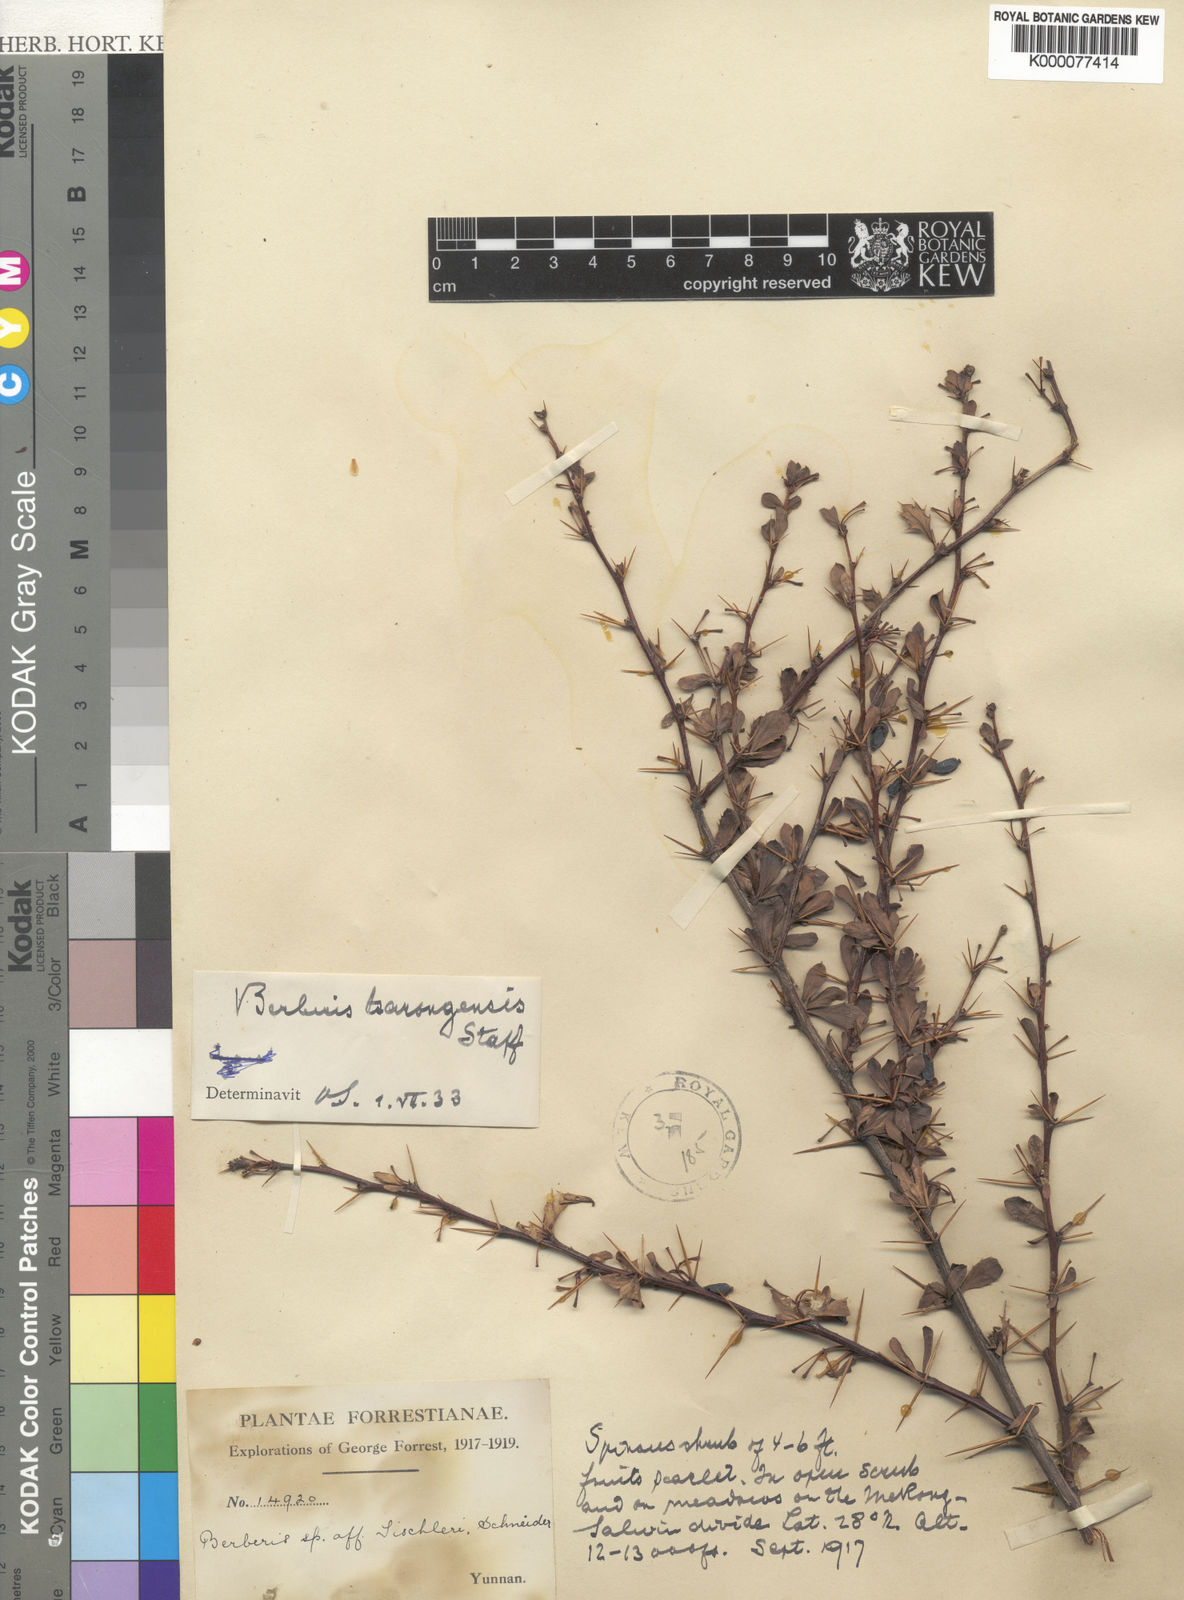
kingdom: Plantae
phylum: Tracheophyta
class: Magnoliopsida
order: Ranunculales
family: Berberidaceae
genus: Berberis
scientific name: Berberis tsarongensis
